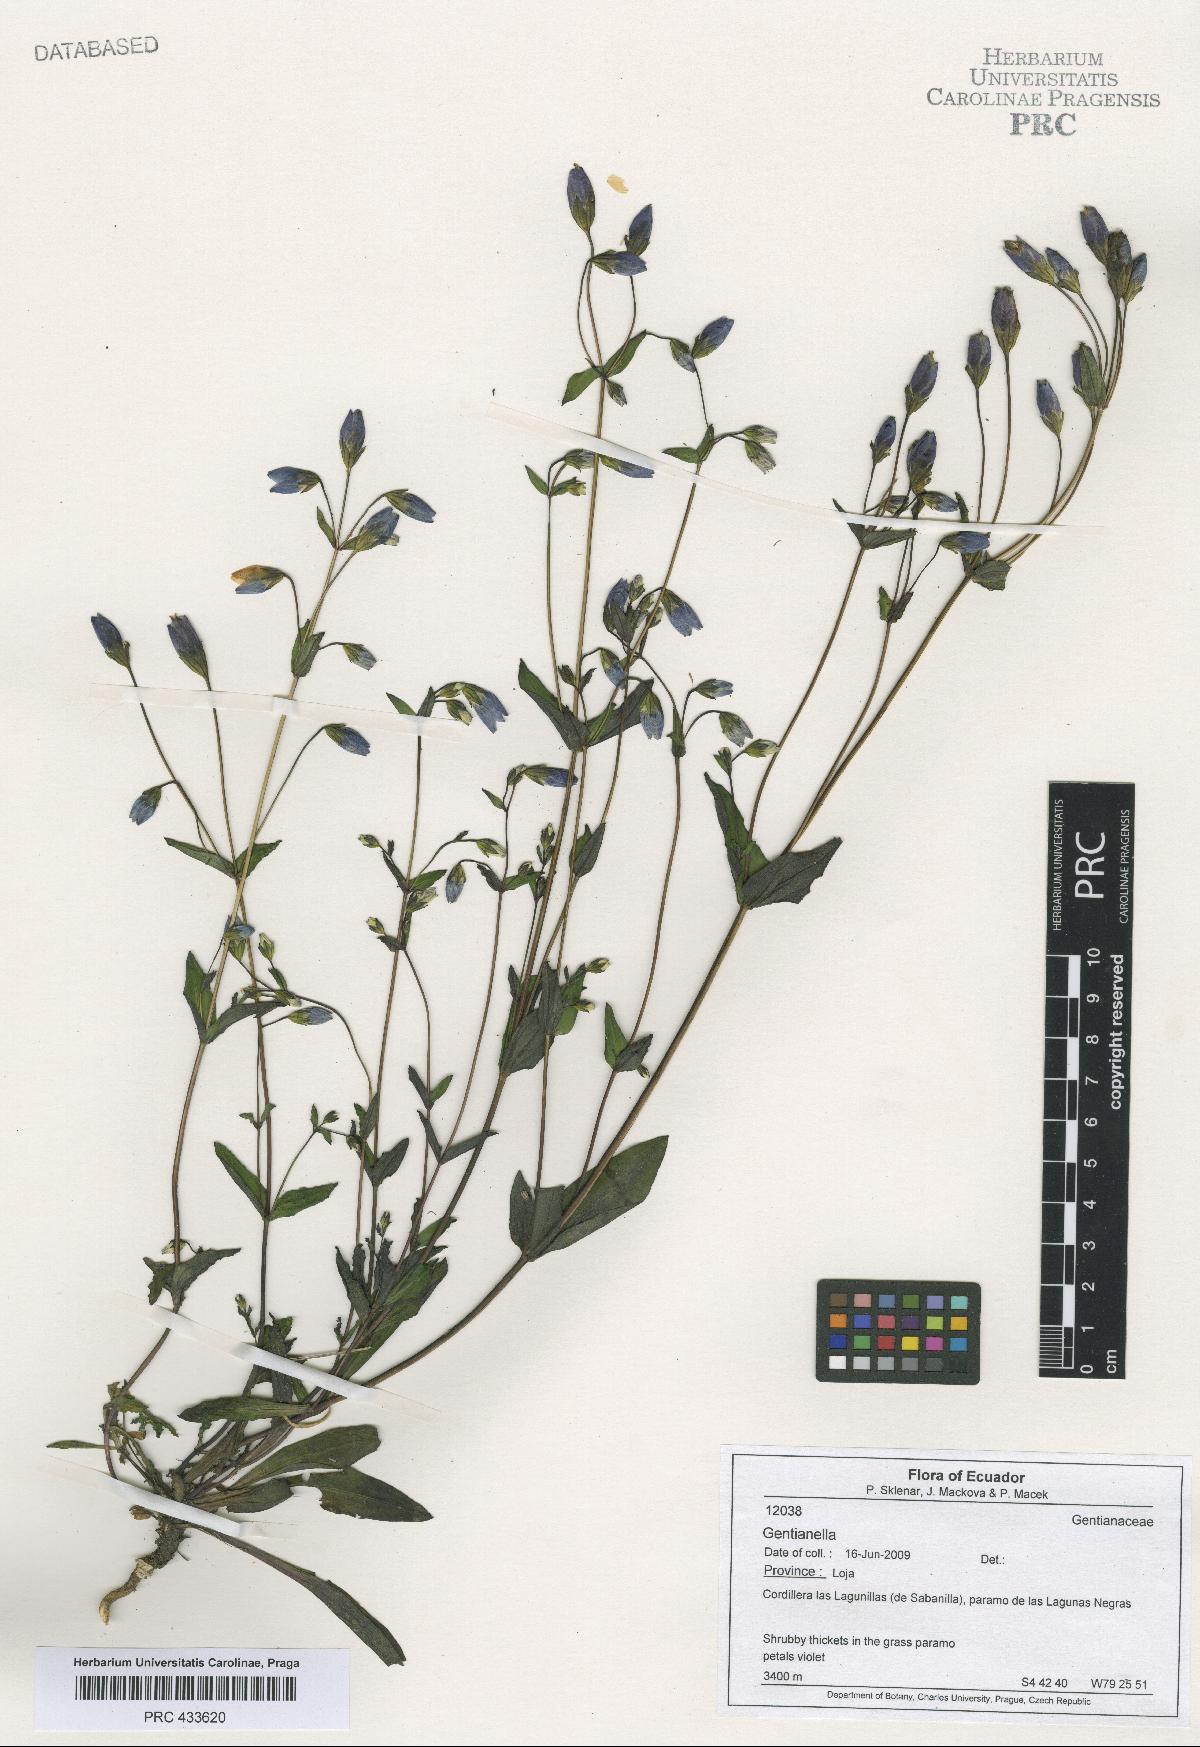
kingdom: Plantae
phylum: Tracheophyta
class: Magnoliopsida
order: Gentianales
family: Gentianaceae
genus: Gentianella
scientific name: Gentianella
